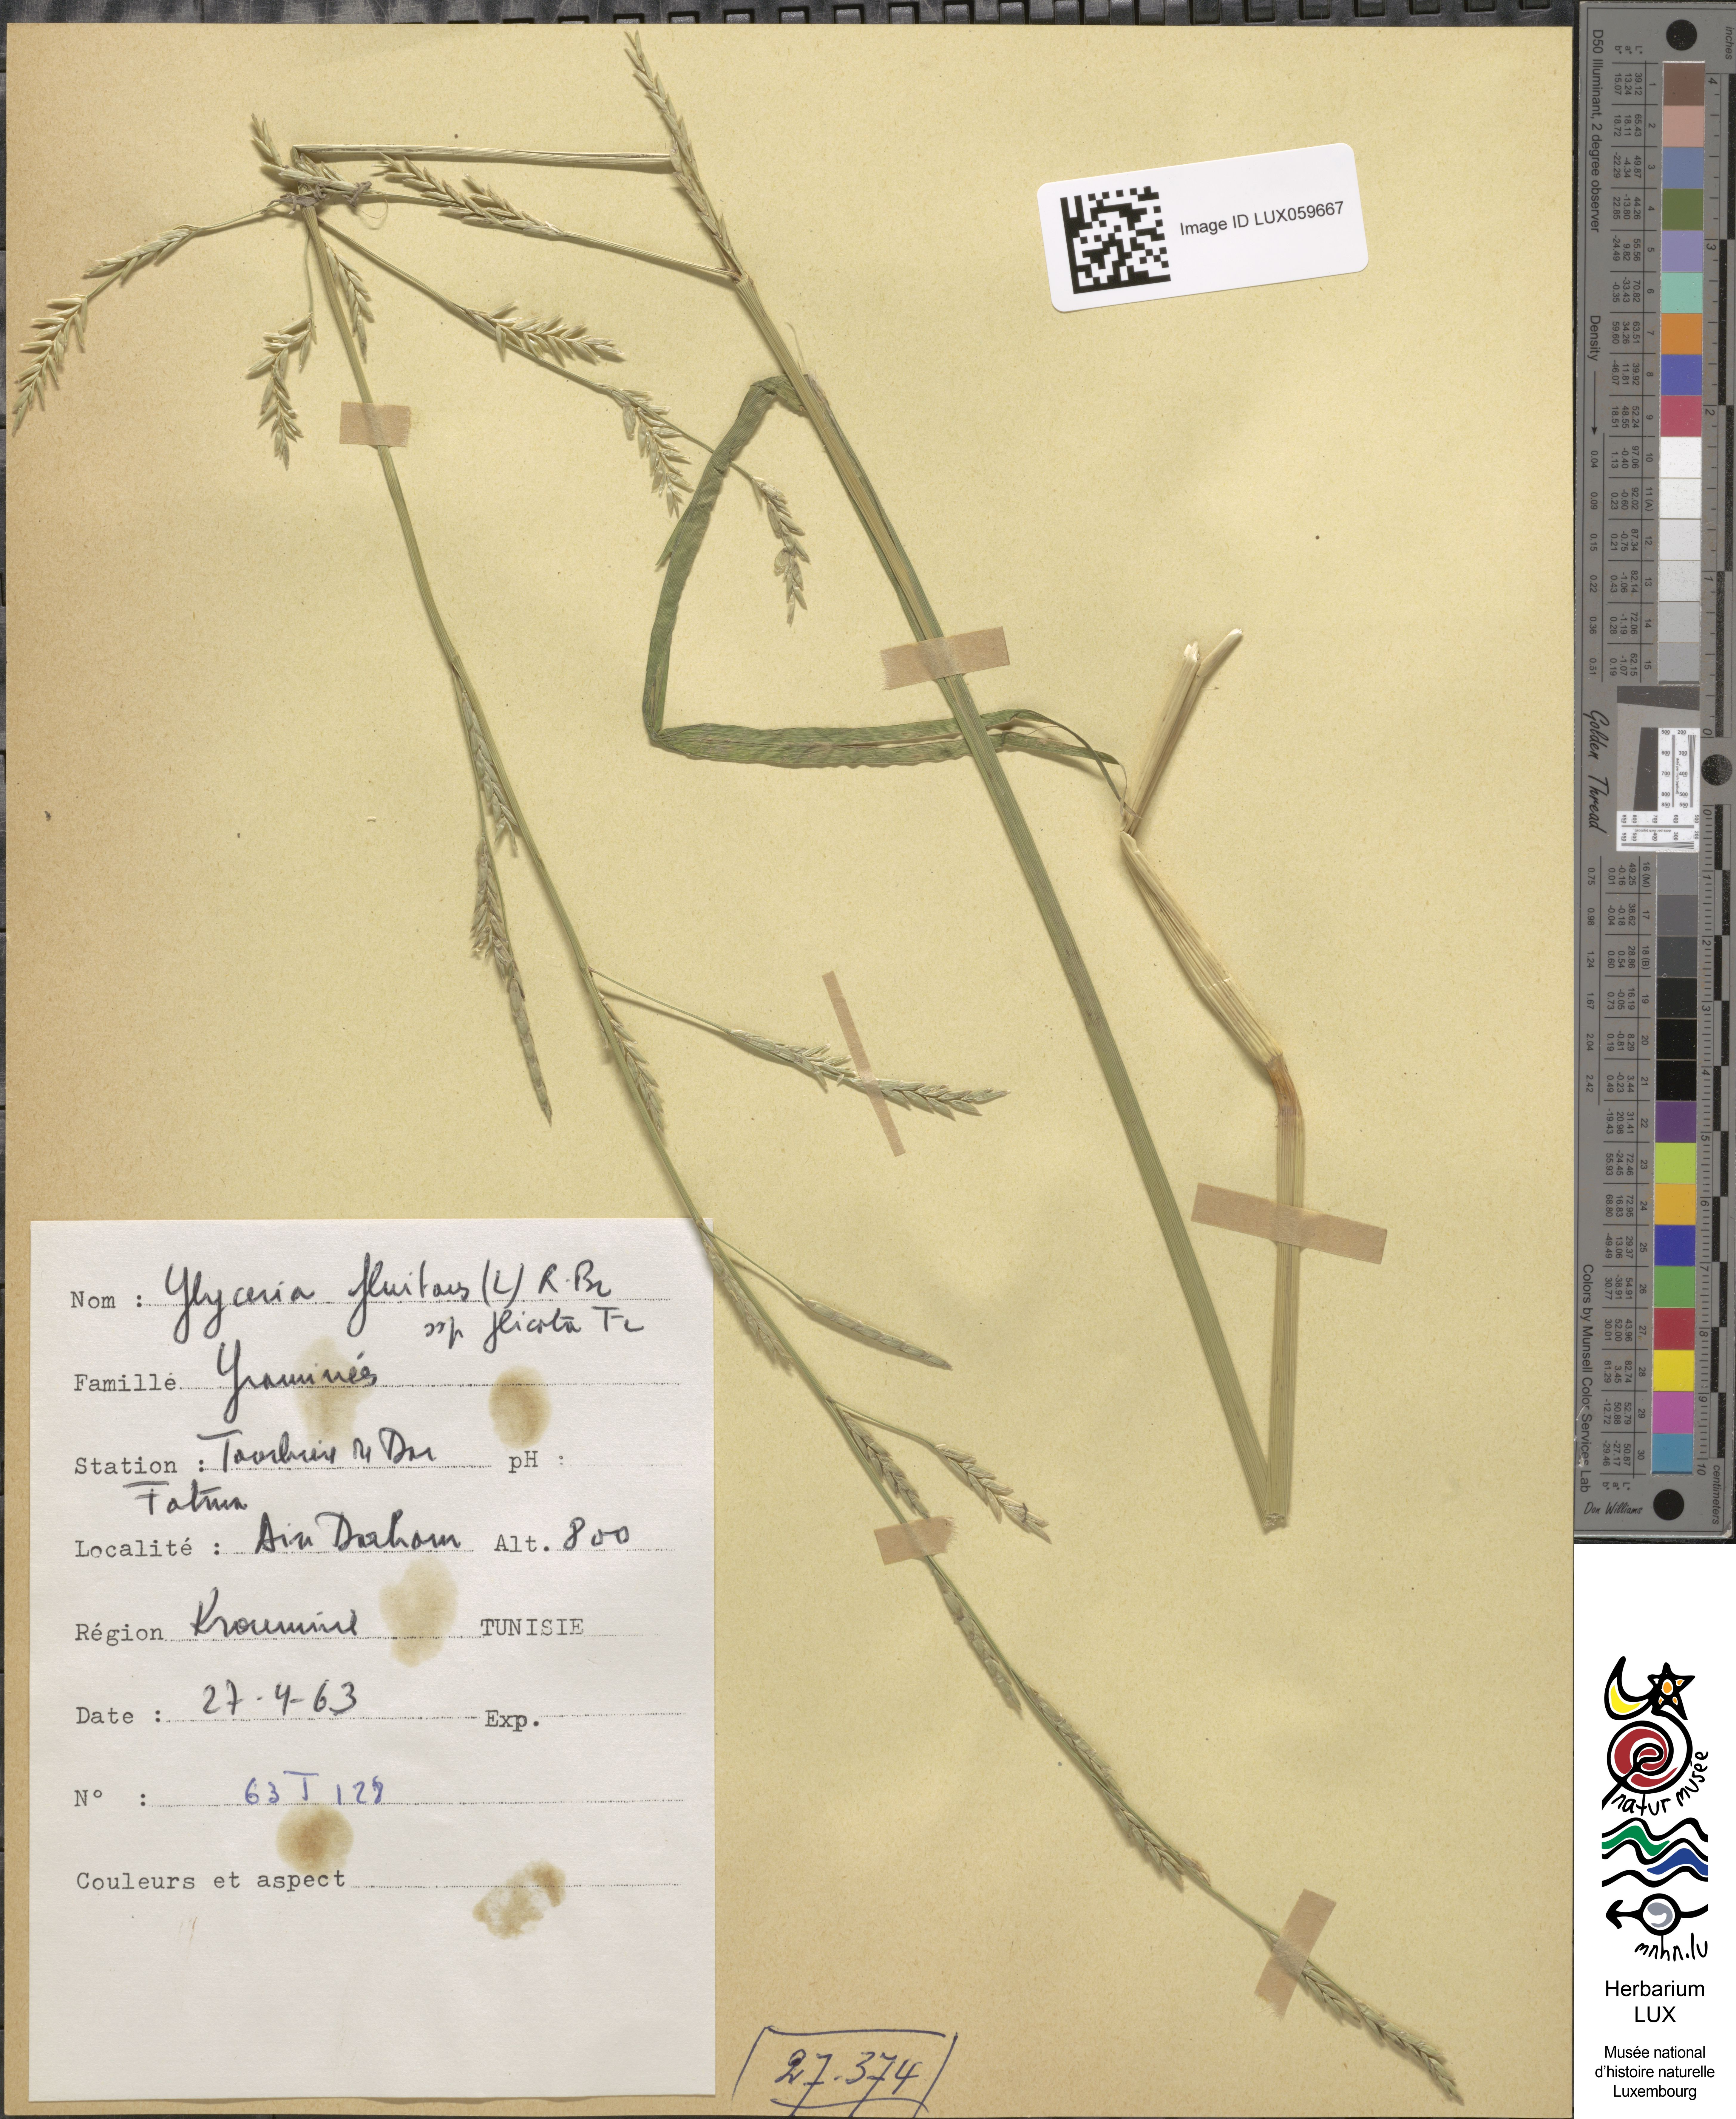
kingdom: Plantae
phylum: Tracheophyta
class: Liliopsida
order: Poales
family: Poaceae
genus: Glyceria
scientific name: Glyceria notata
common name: Plicate sweet-grass
